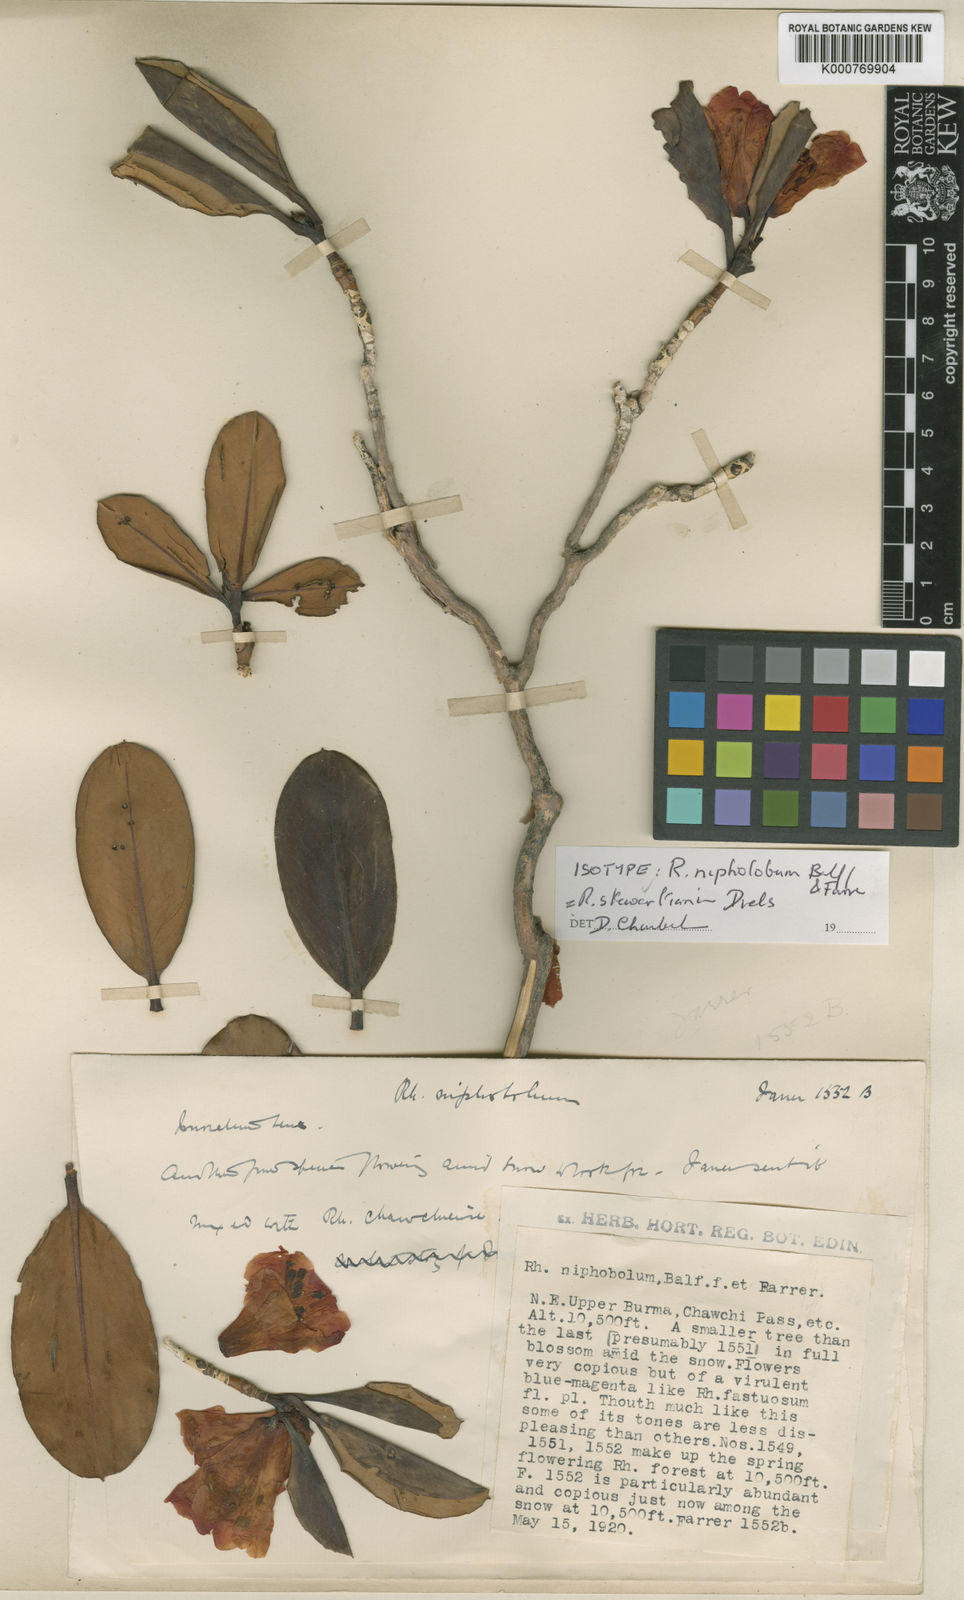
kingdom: Plantae
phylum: Tracheophyta
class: Magnoliopsida
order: Ericales
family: Ericaceae
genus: Rhododendron
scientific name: Rhododendron
